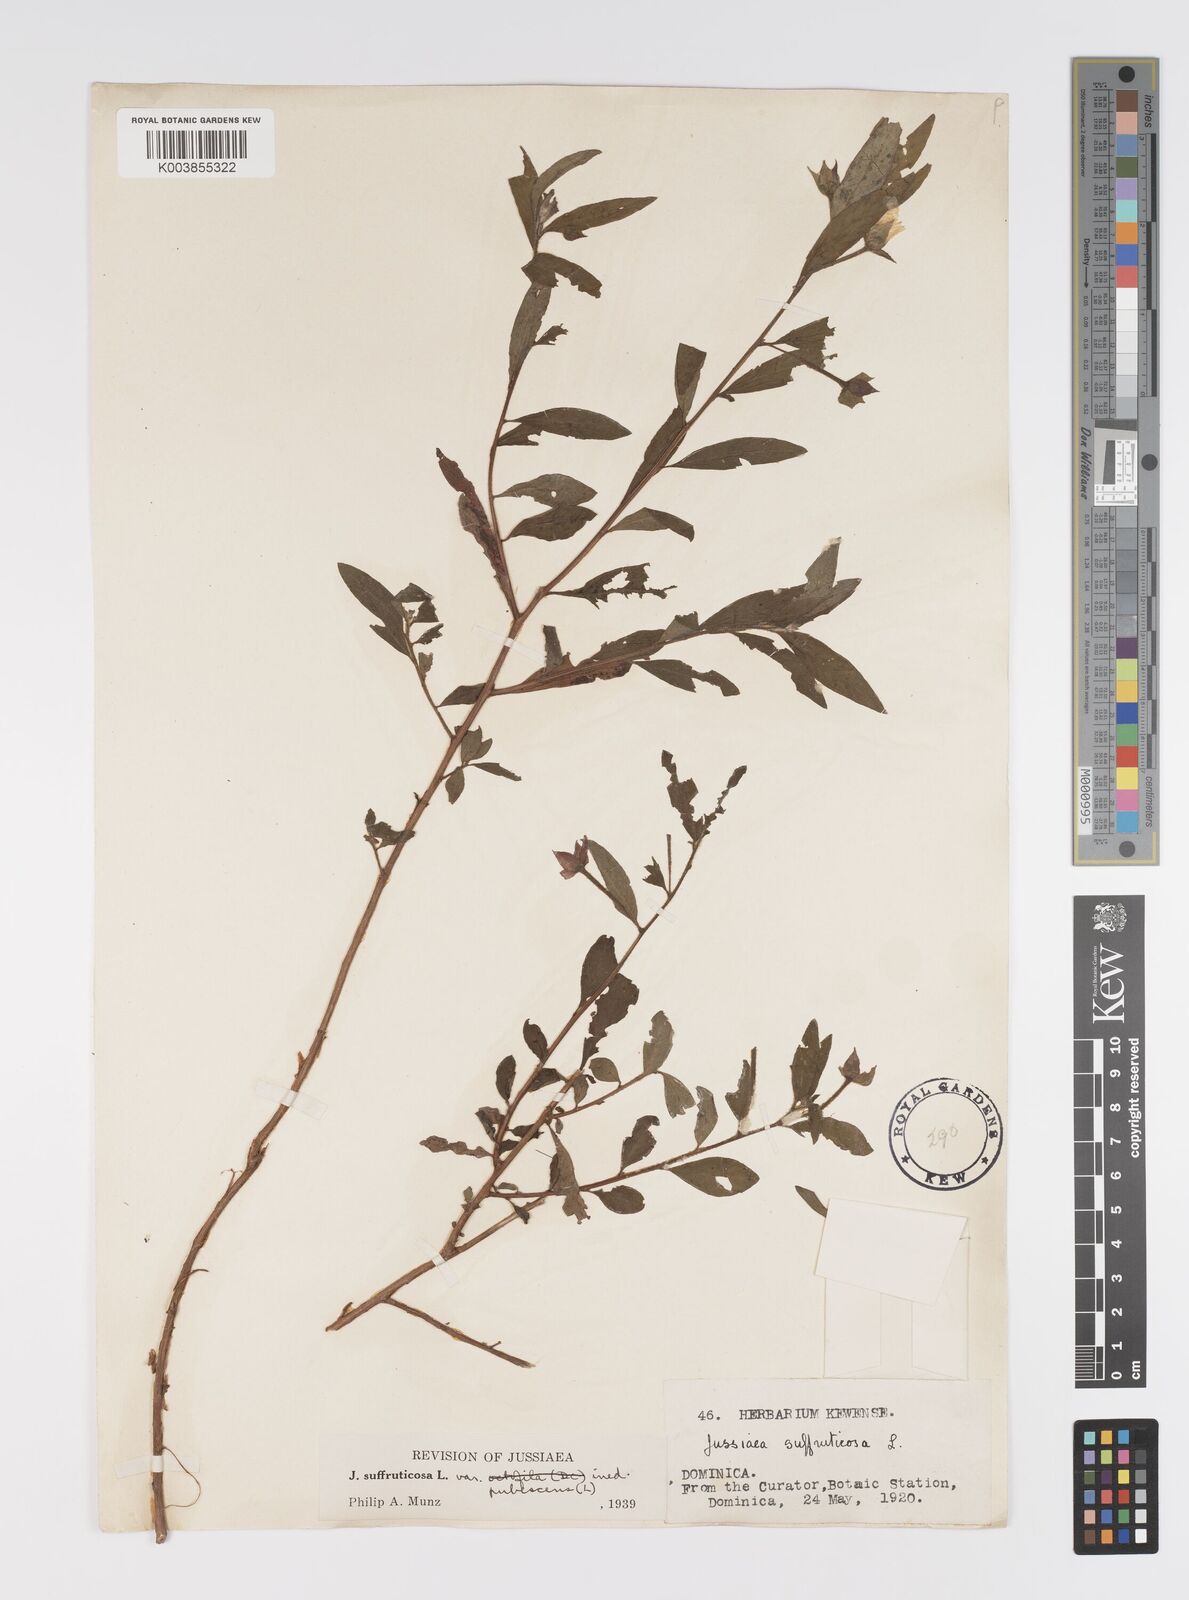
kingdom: Plantae
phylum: Tracheophyta
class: Magnoliopsida
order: Myrtales
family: Onagraceae
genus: Ludwigia
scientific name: Ludwigia octovalvis
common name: Water-primrose
